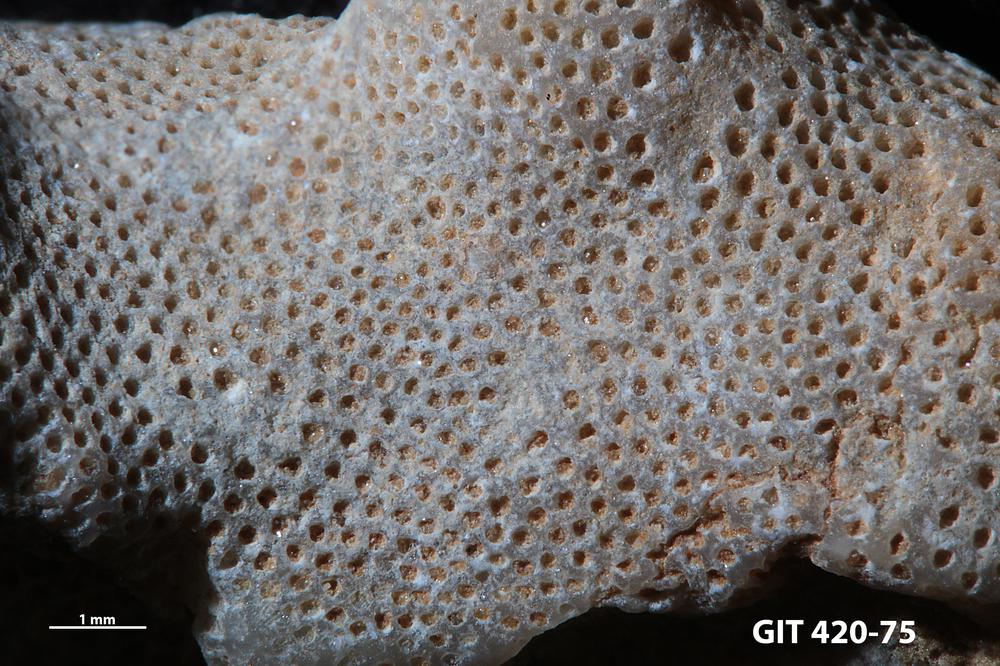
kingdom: Animalia
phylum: Bryozoa
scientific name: Bryozoa
